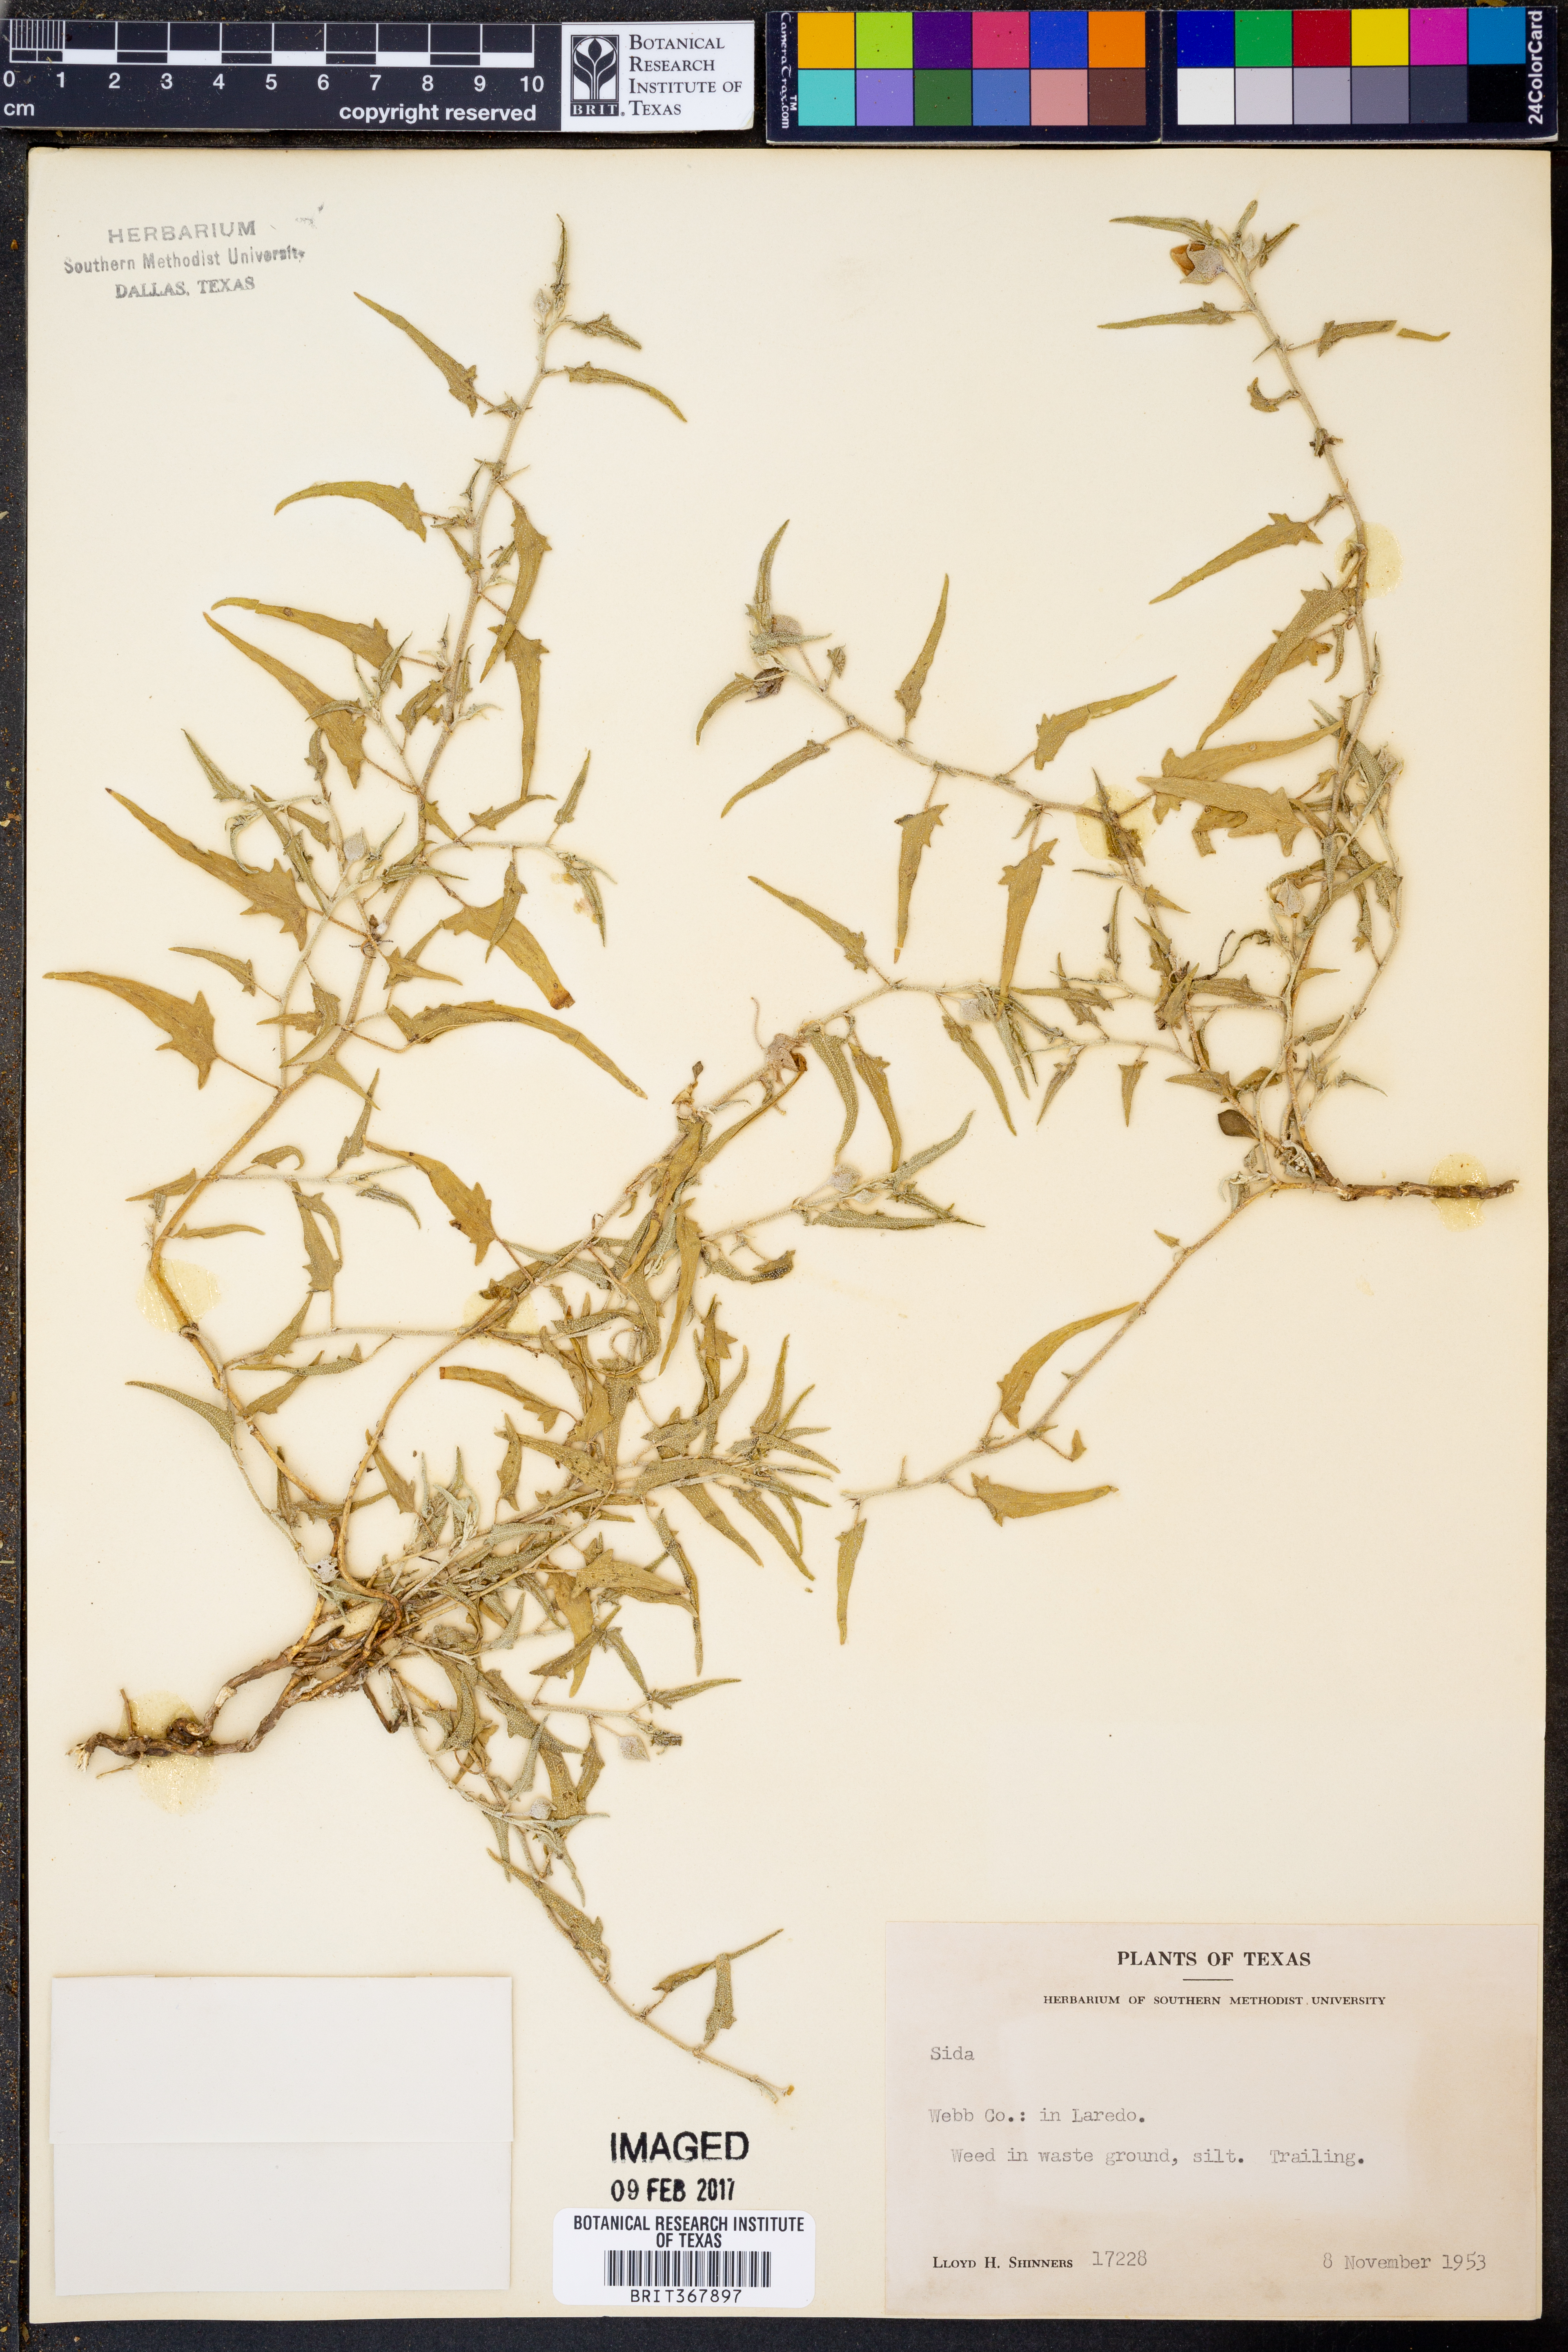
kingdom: Plantae
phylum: Tracheophyta
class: Magnoliopsida
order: Malvales
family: Malvaceae
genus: Sida
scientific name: Sida
